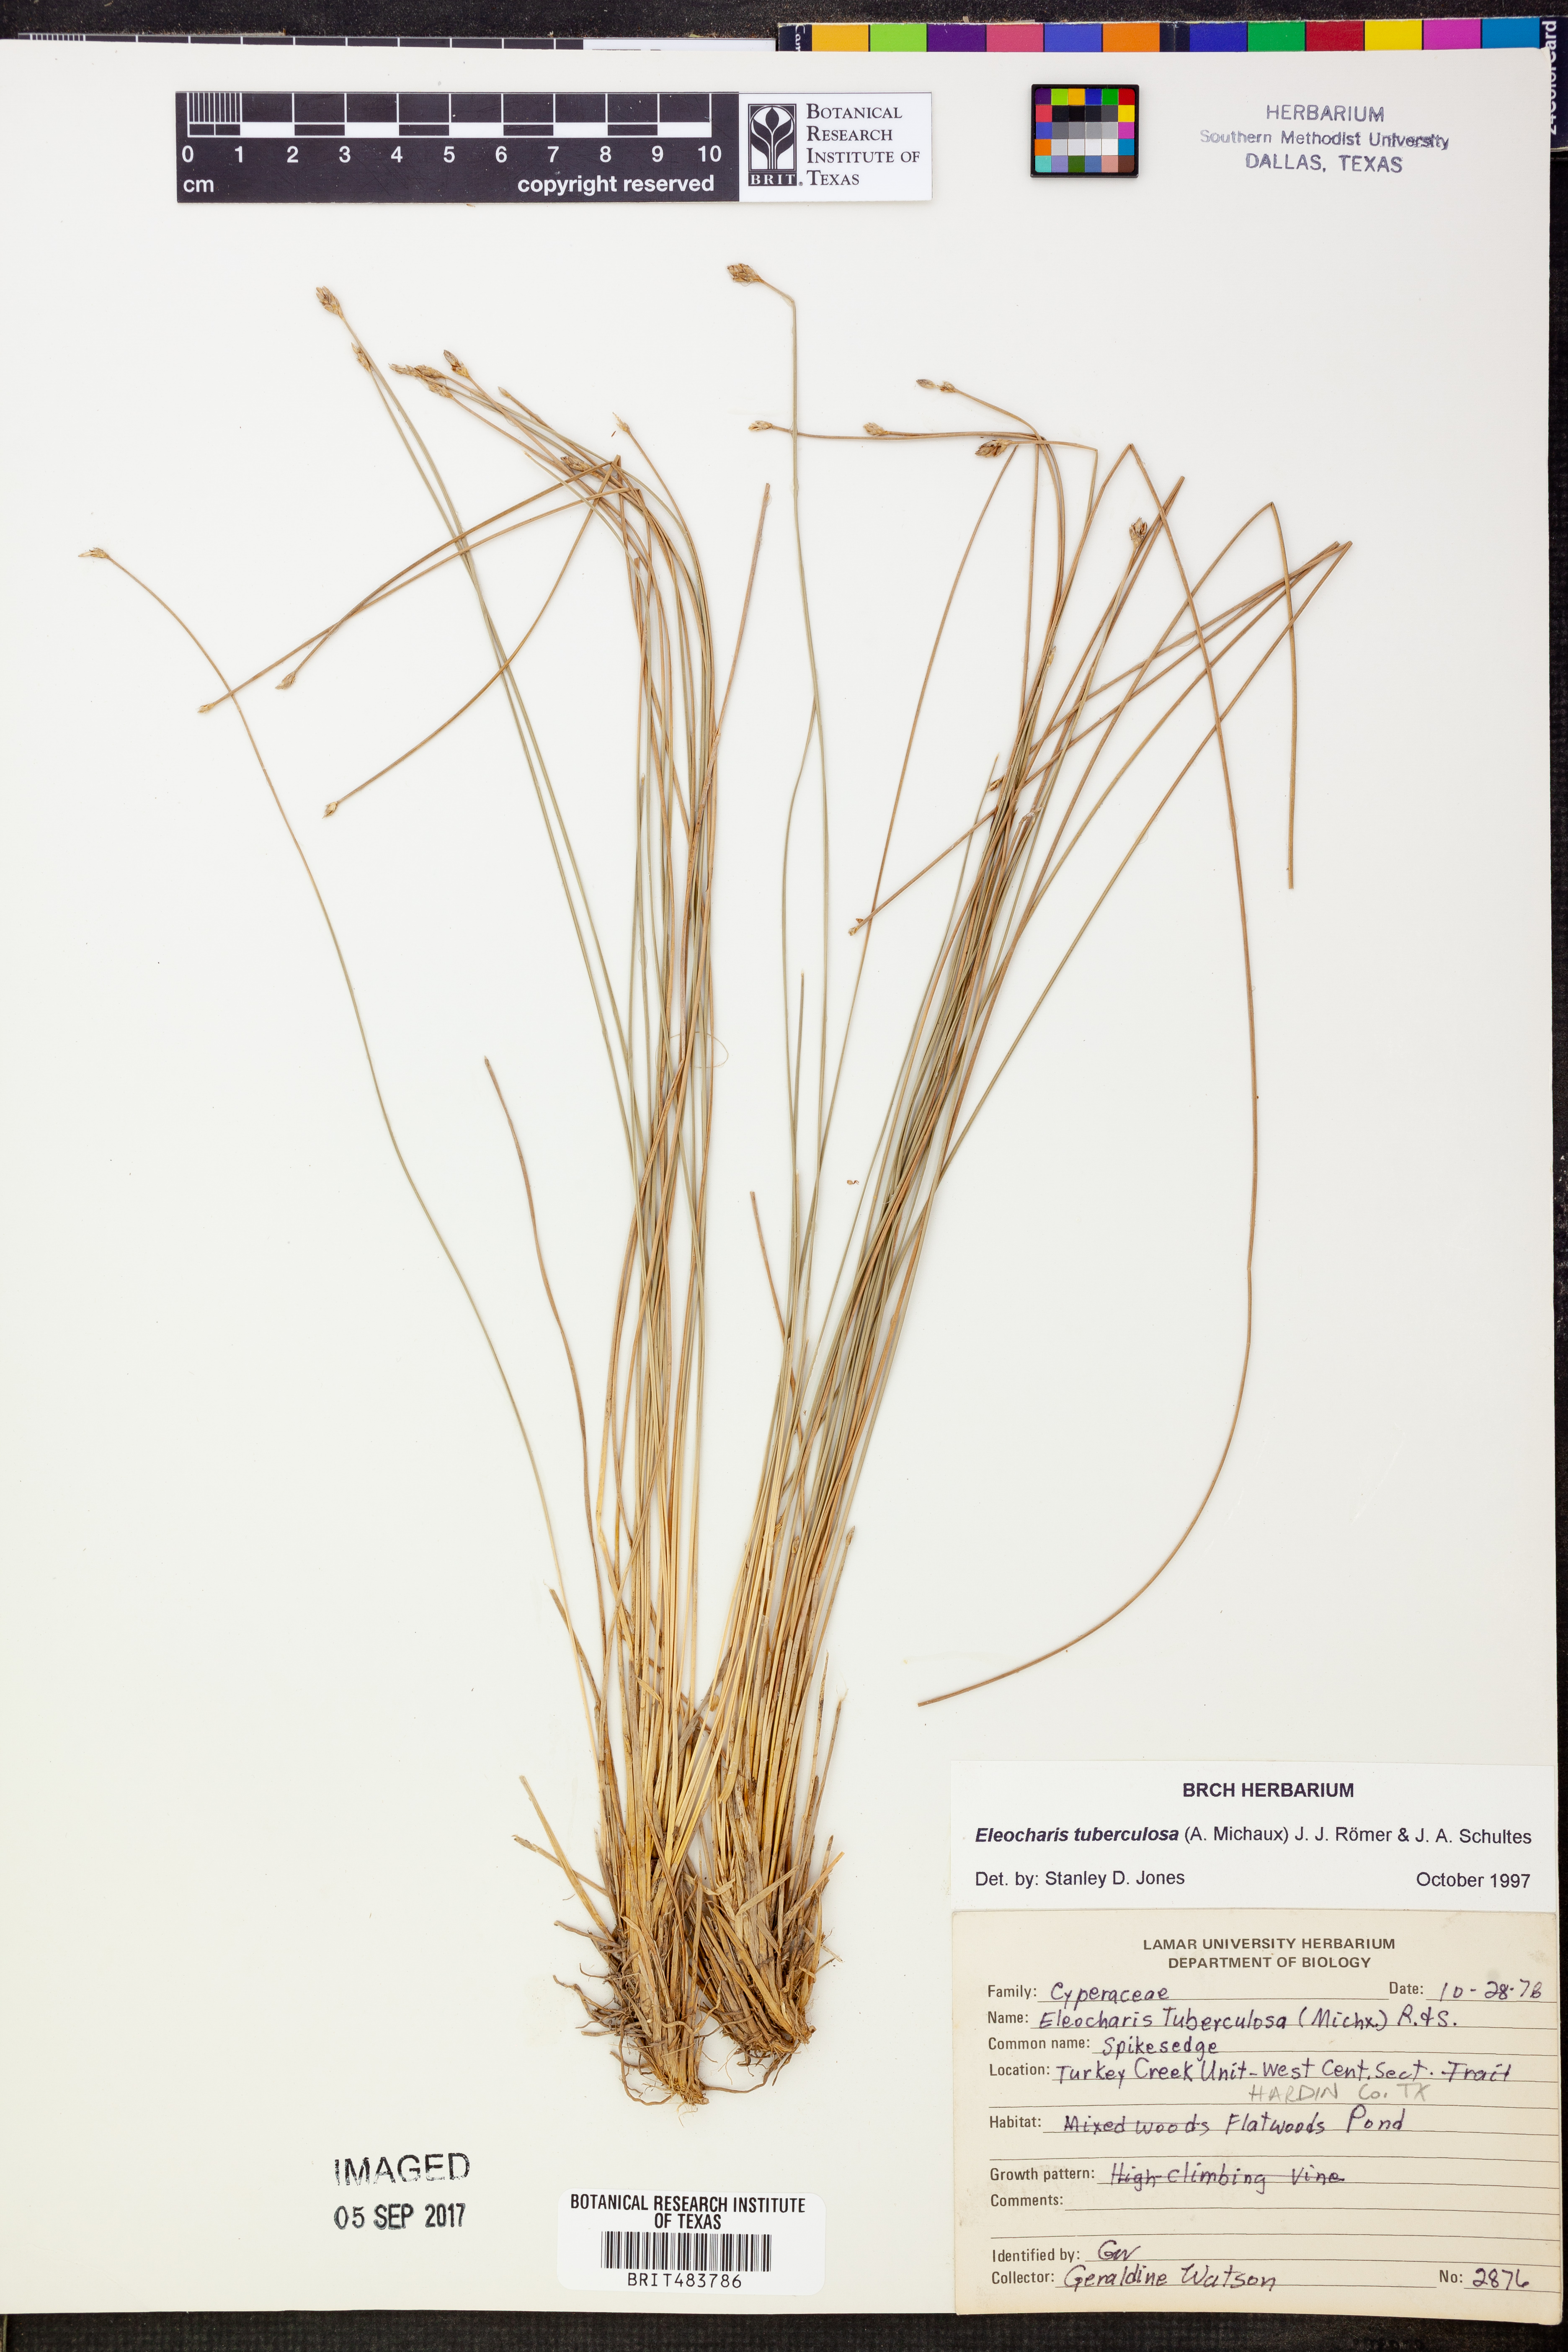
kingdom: Plantae
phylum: Tracheophyta
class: Liliopsida
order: Poales
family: Cyperaceae
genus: Eleocharis
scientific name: Eleocharis tuberculosa
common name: Cone-cup spikerush
